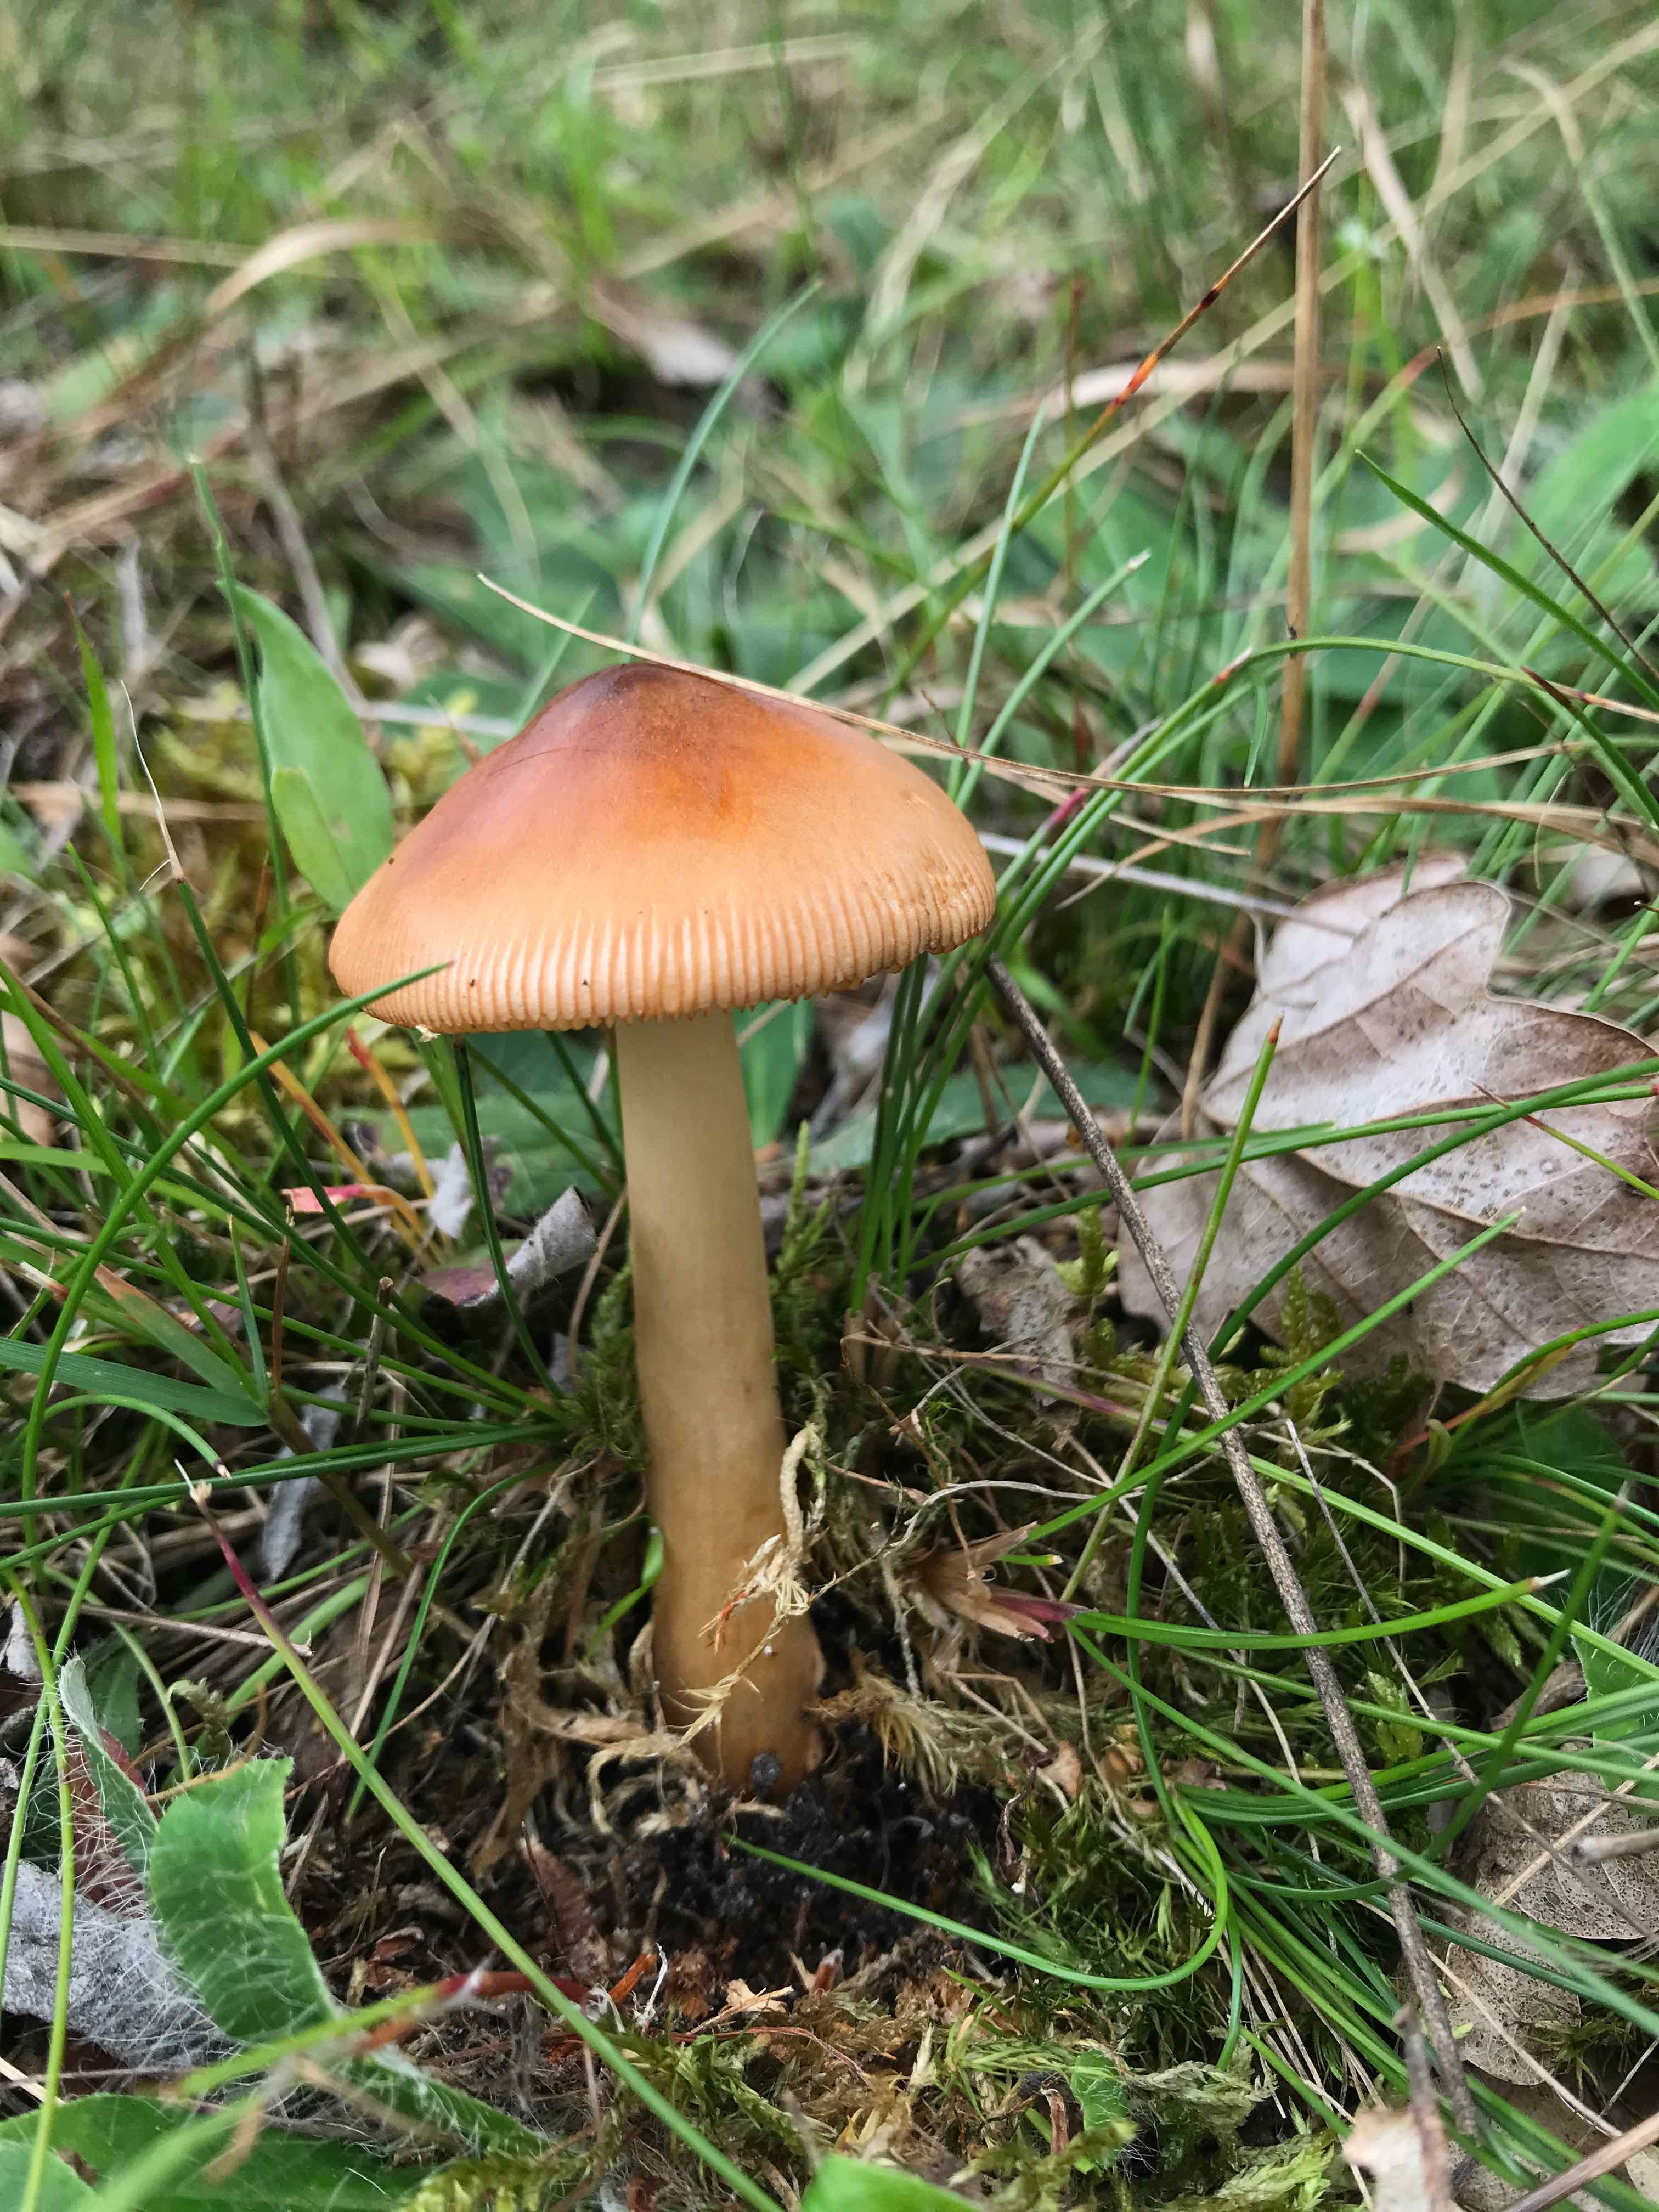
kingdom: Fungi
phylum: Basidiomycota
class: Agaricomycetes
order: Agaricales
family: Amanitaceae
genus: Amanita
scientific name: Amanita fulva
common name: brun kam-fluesvamp
